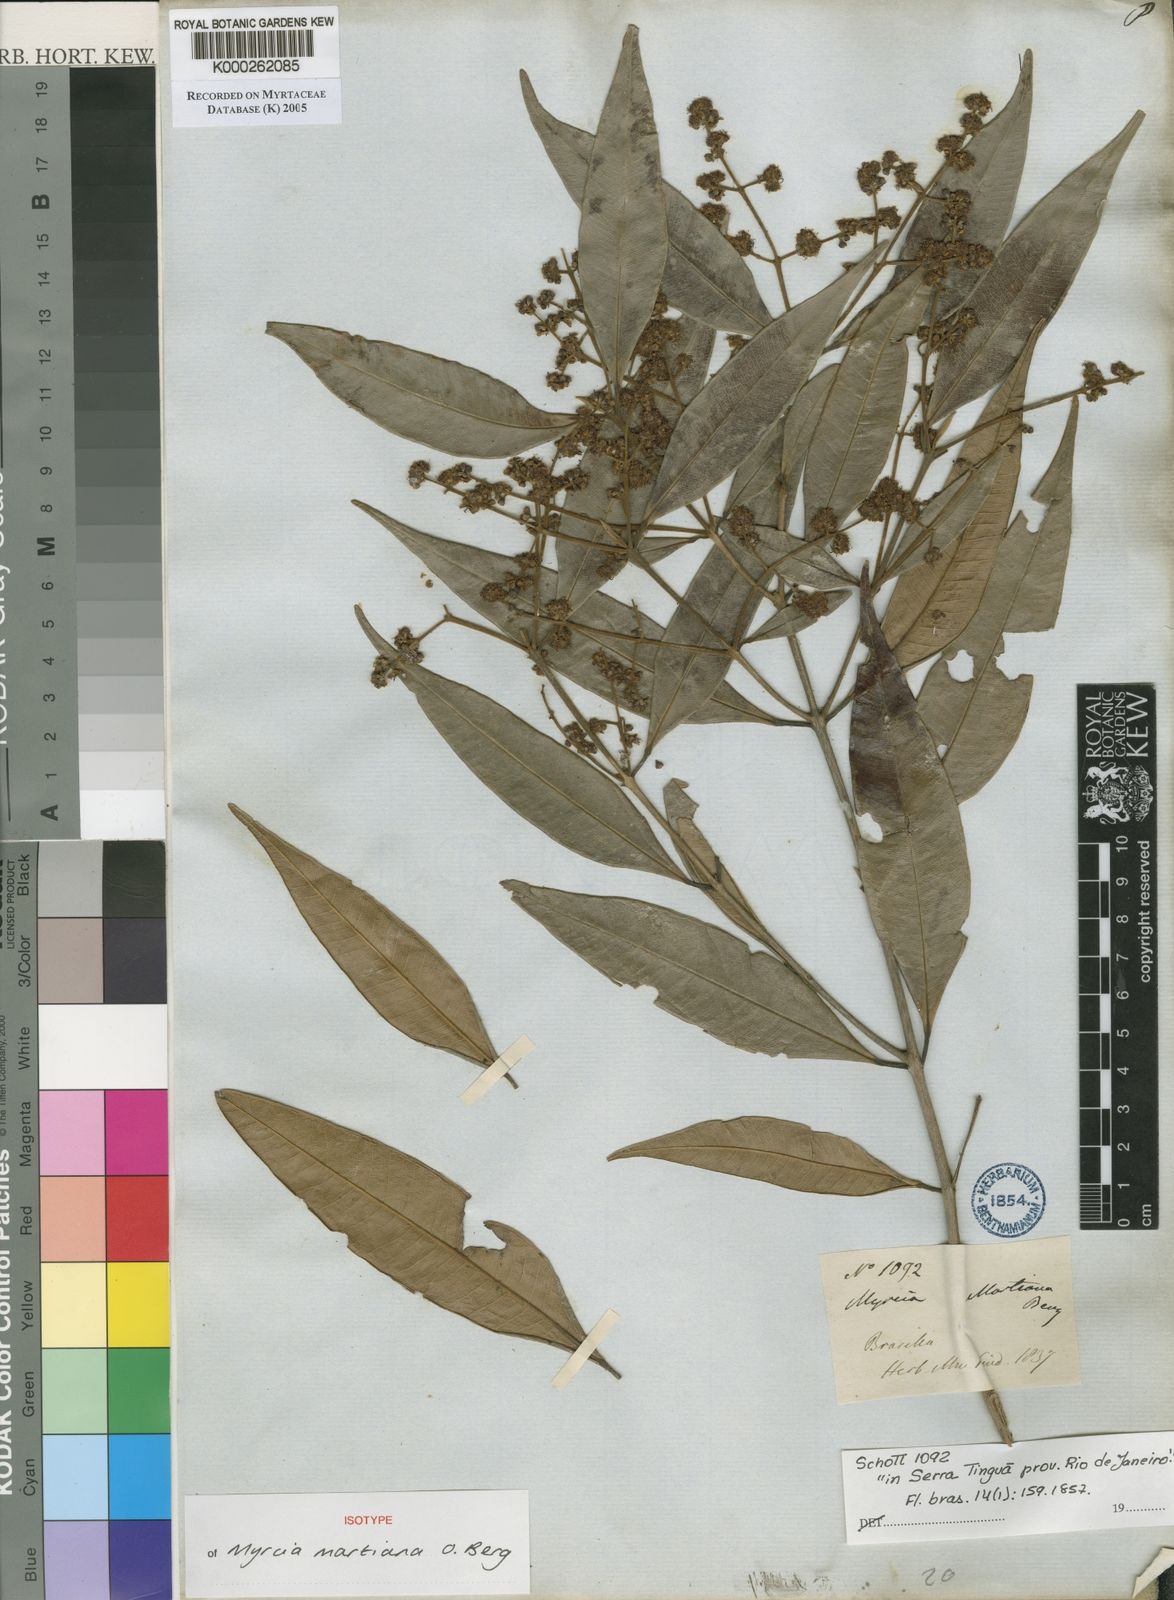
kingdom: Plantae
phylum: Tracheophyta
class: Magnoliopsida
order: Myrtales
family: Myrtaceae
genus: Myrcia
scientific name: Myrcia splendens
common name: Surinam cherry
